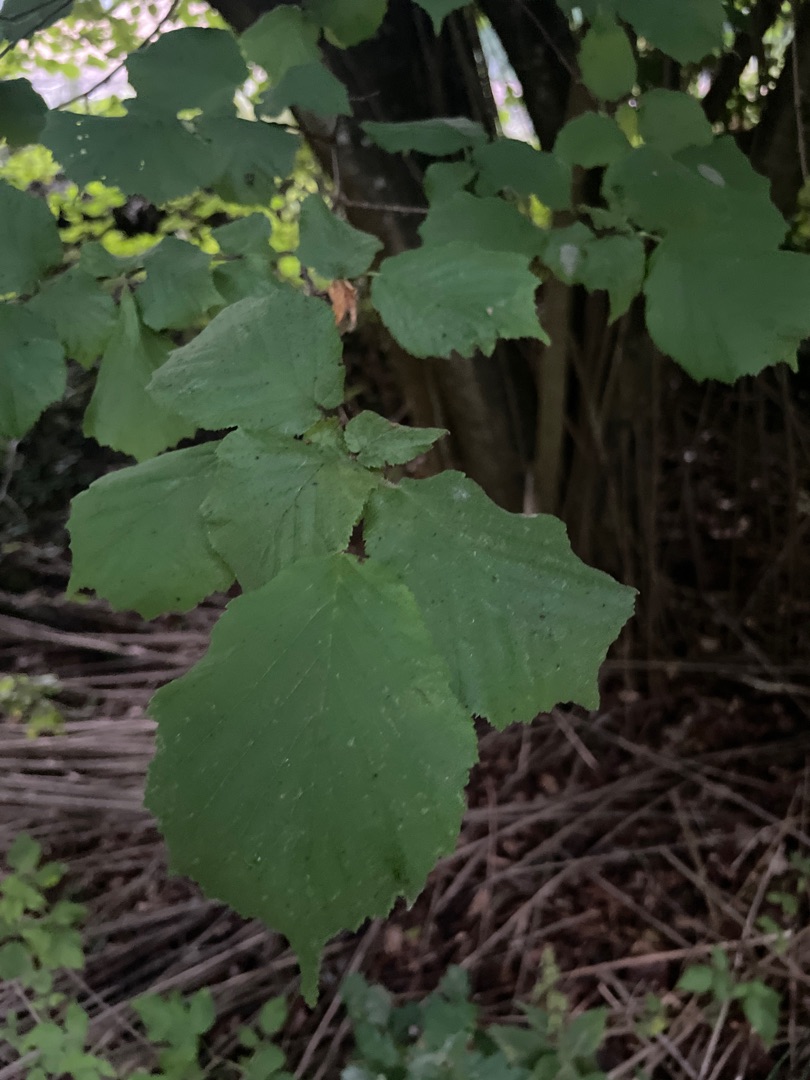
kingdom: Plantae
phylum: Tracheophyta
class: Magnoliopsida
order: Fagales
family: Betulaceae
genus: Corylus
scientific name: Corylus avellana
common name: Hassel
